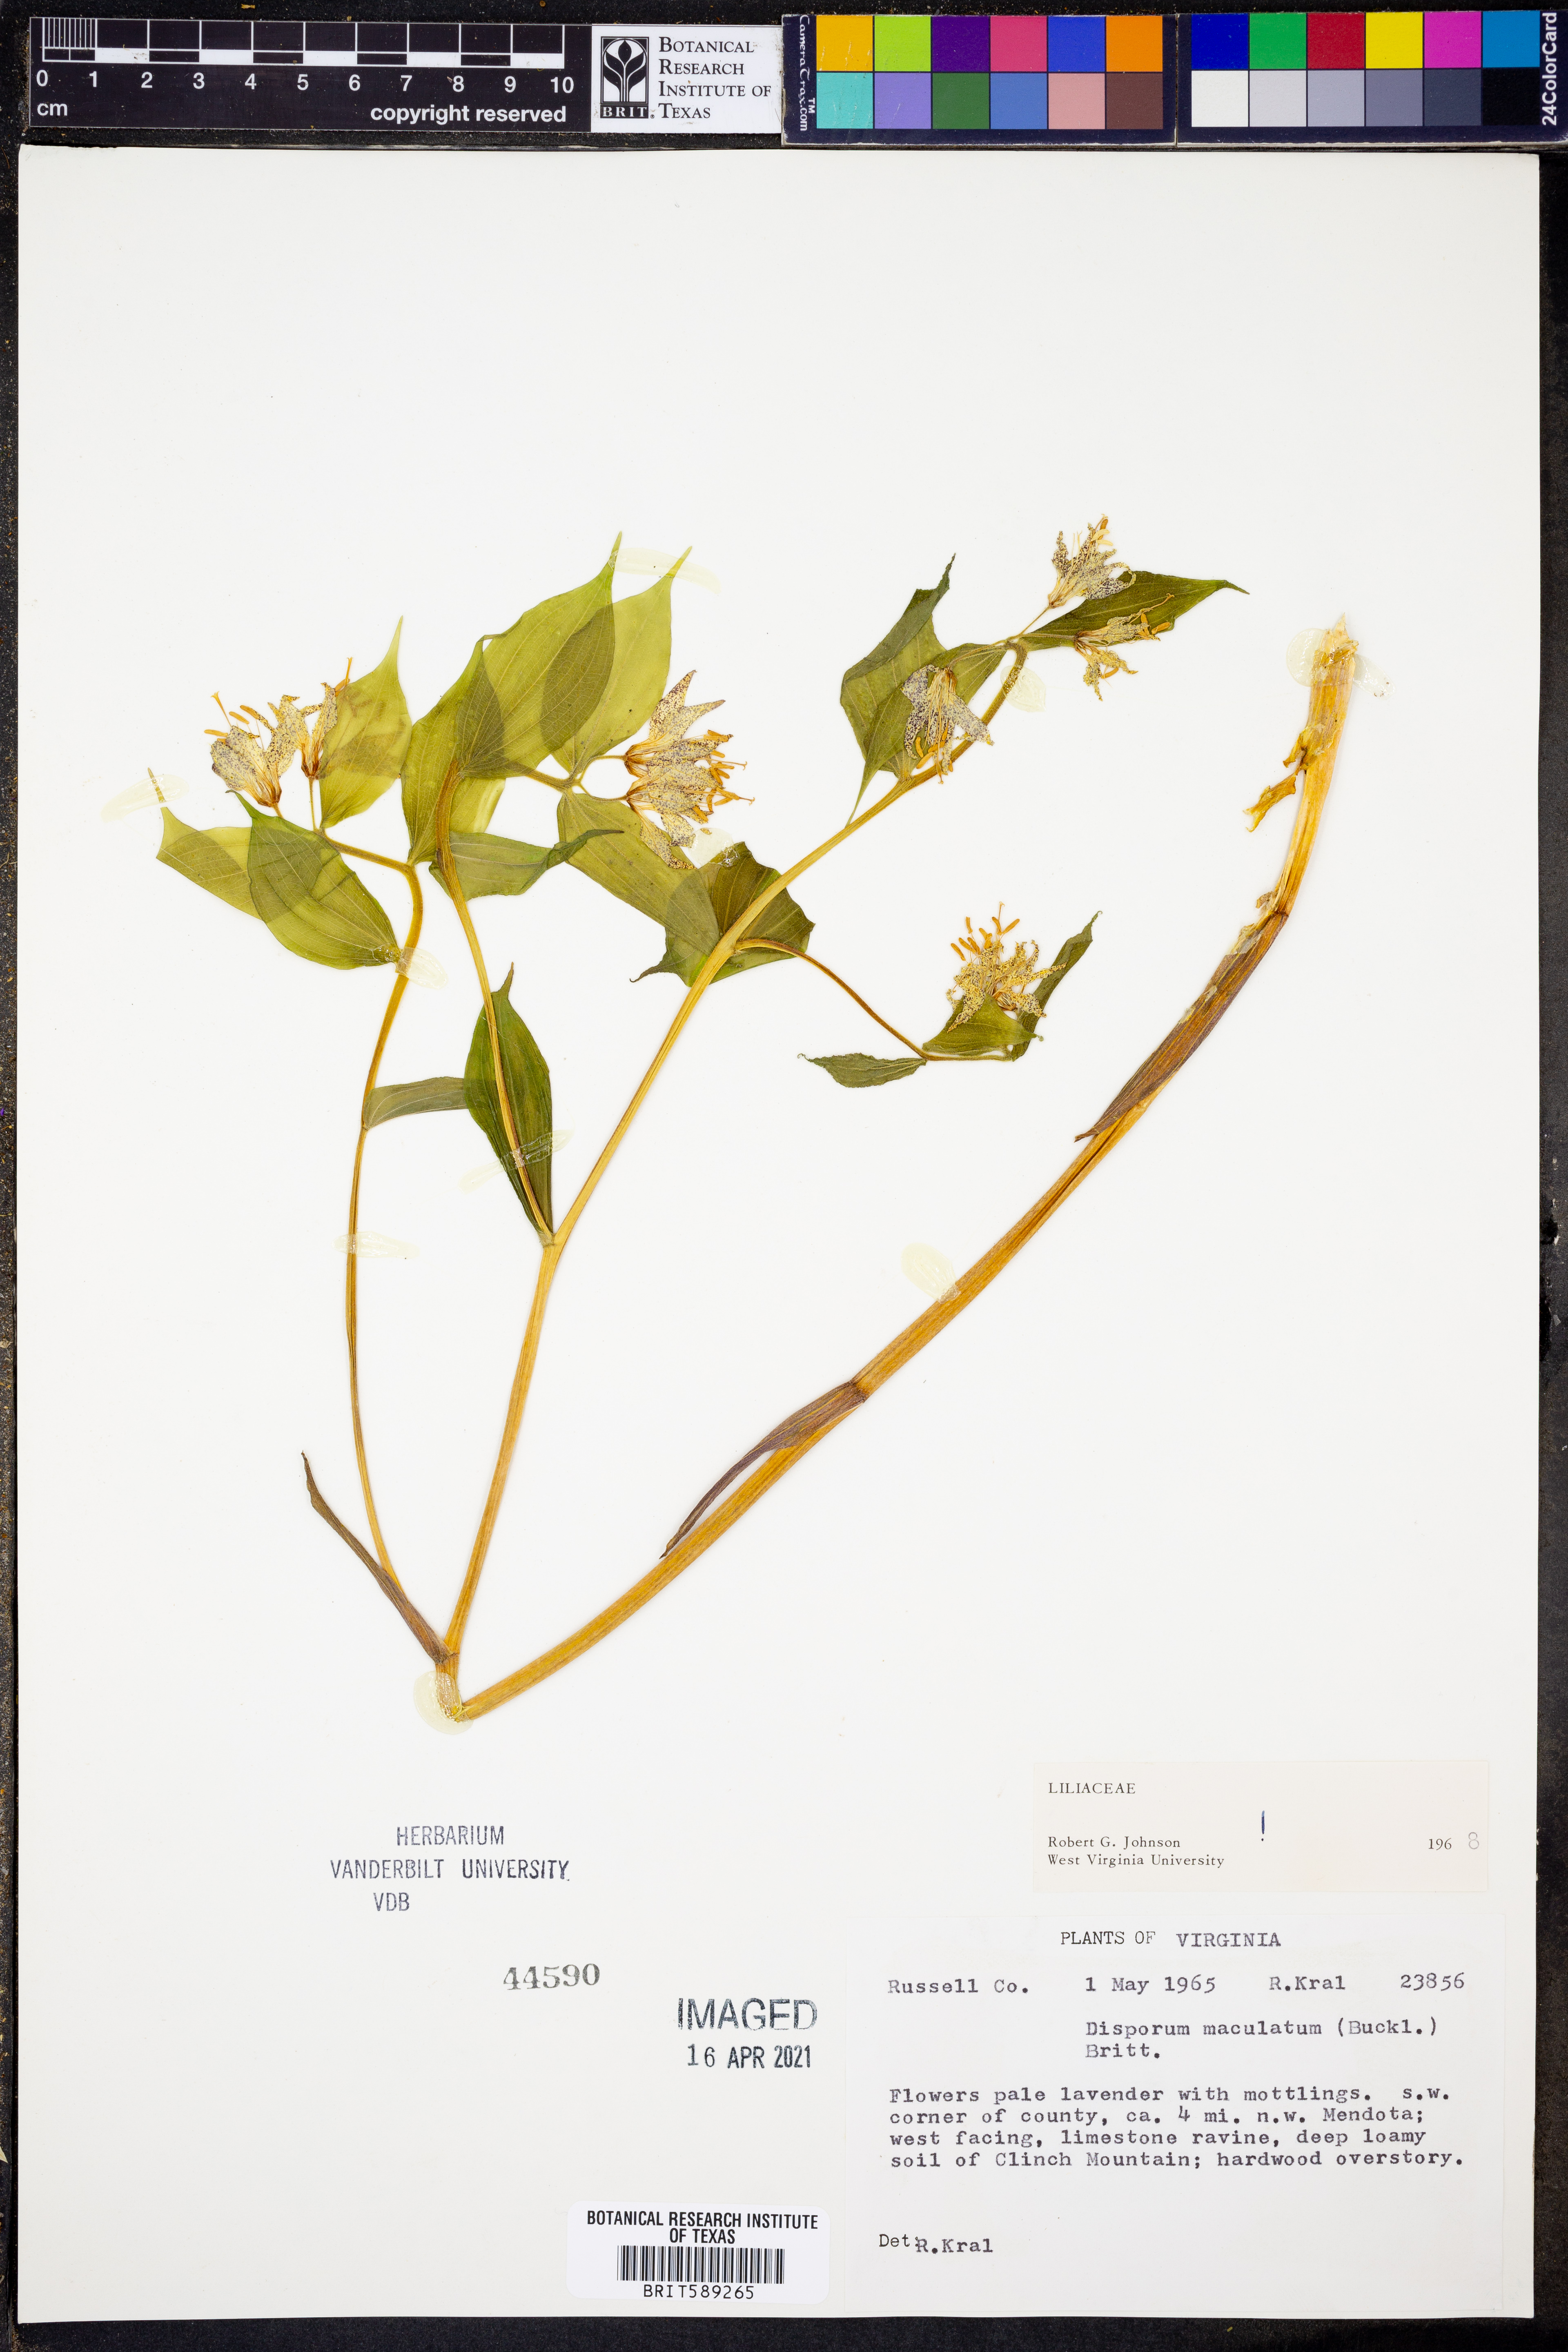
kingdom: Plantae
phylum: Tracheophyta
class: Liliopsida
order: Liliales
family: Liliaceae
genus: Prosartes
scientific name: Prosartes maculata
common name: Yellow mandarin
